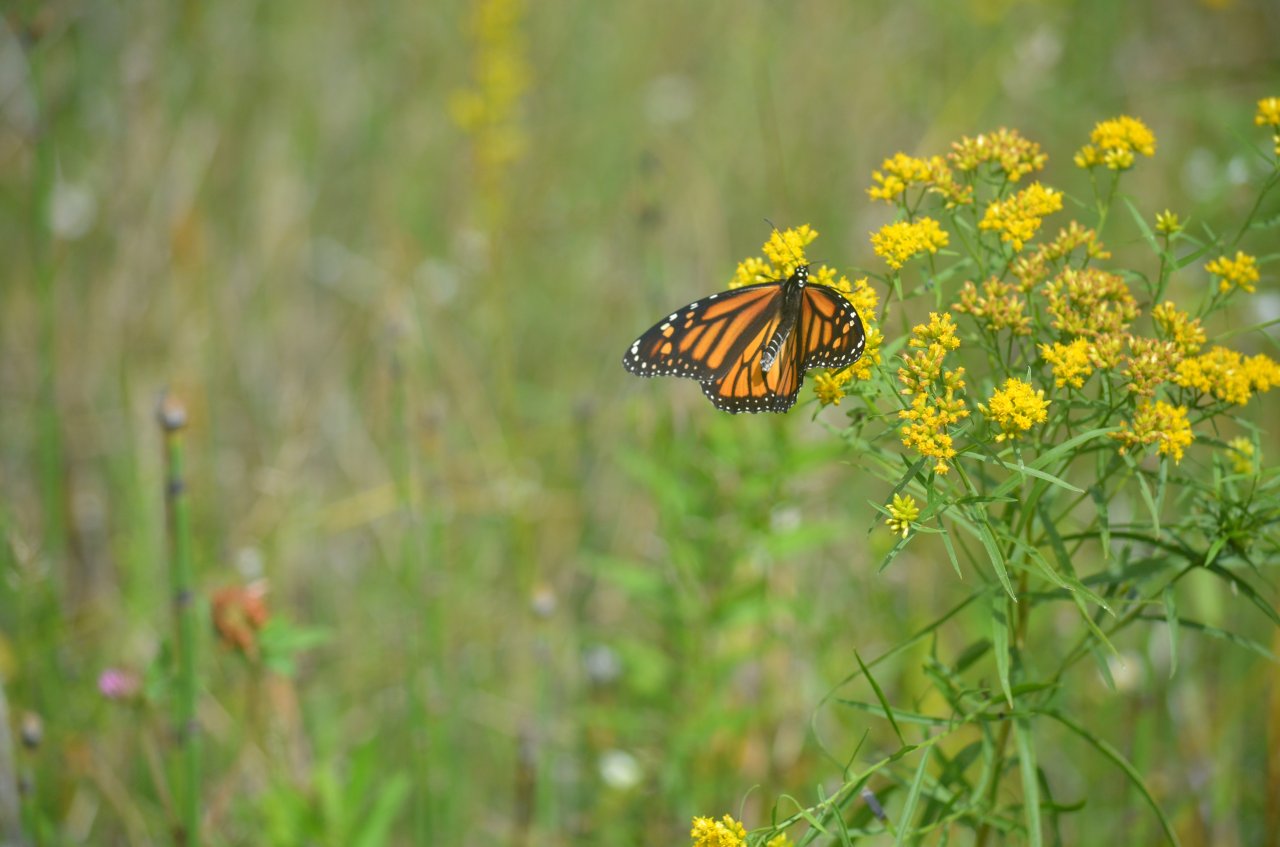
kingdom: Animalia
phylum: Arthropoda
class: Insecta
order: Lepidoptera
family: Nymphalidae
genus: Danaus
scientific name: Danaus plexippus
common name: Monarch
